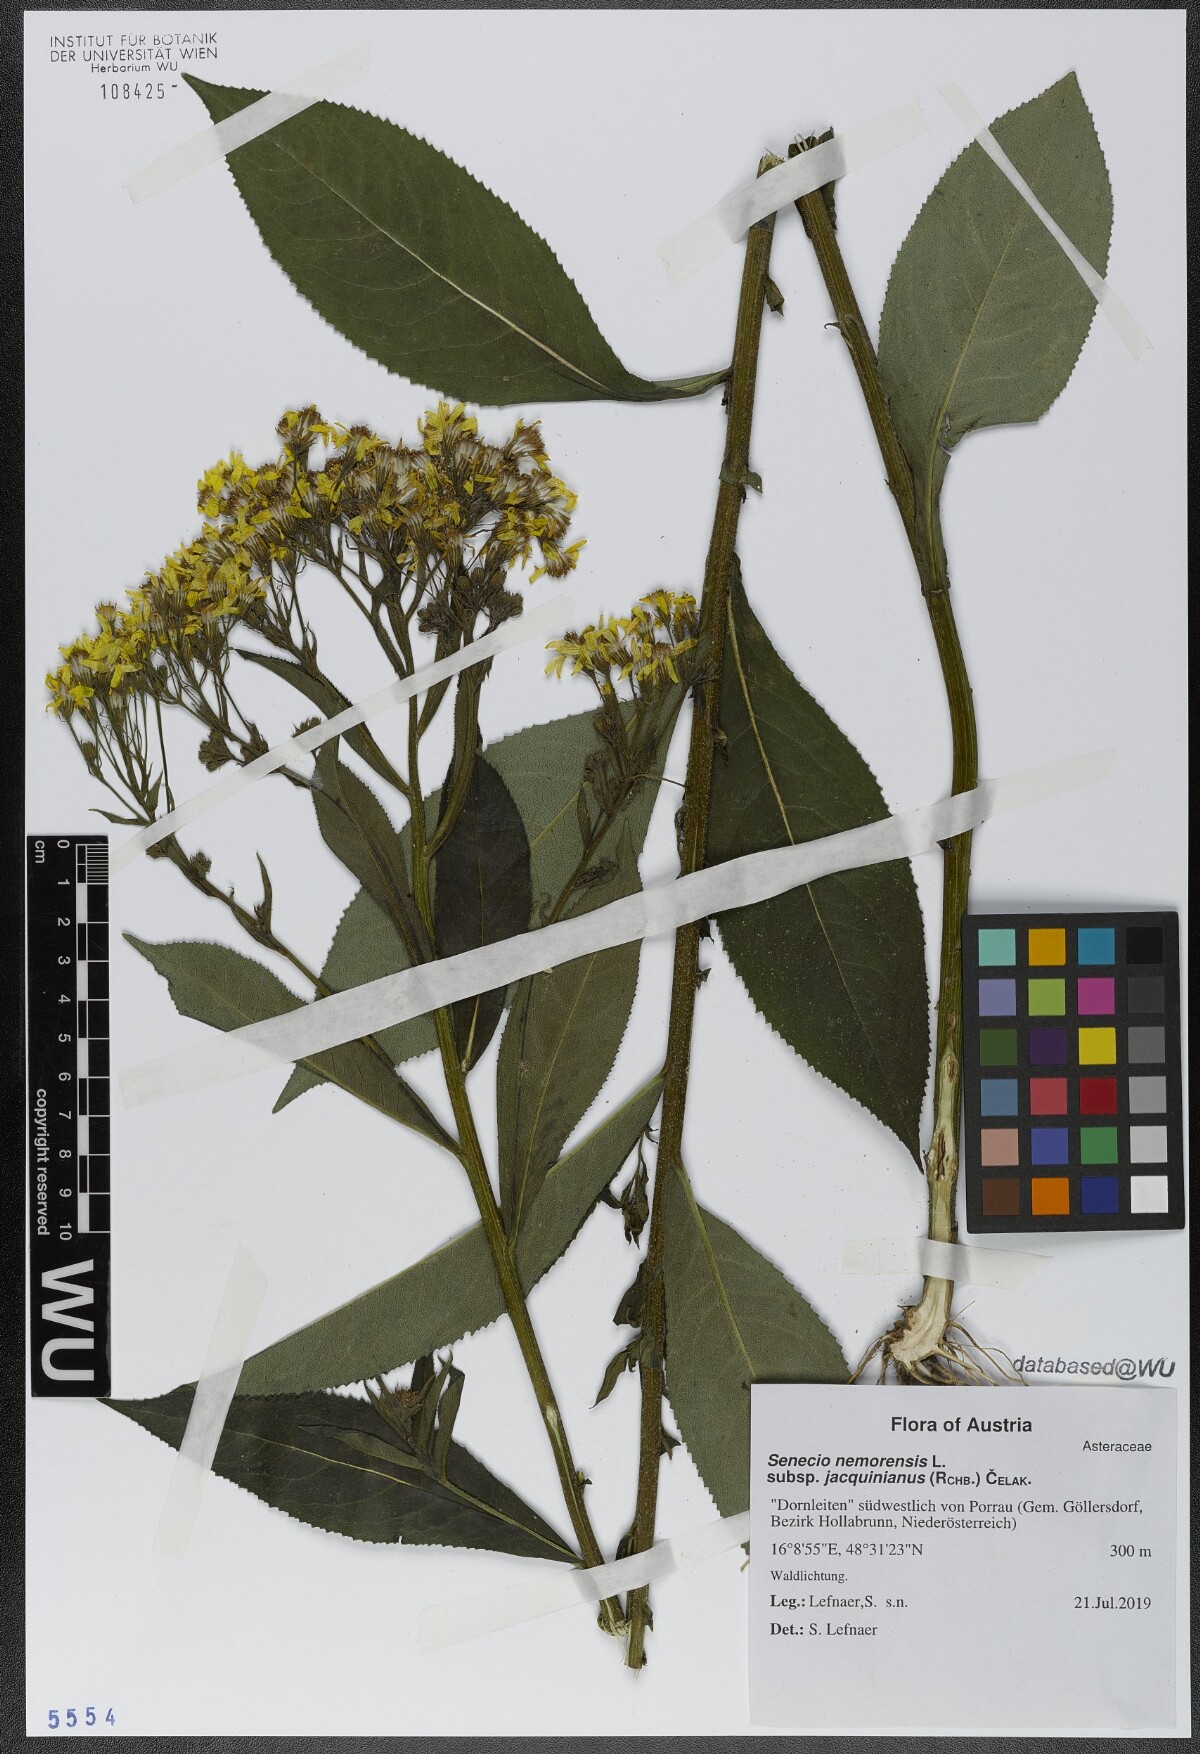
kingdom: Plantae
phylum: Tracheophyta
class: Magnoliopsida
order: Asterales
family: Asteraceae
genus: Senecio
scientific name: Senecio germanicus
